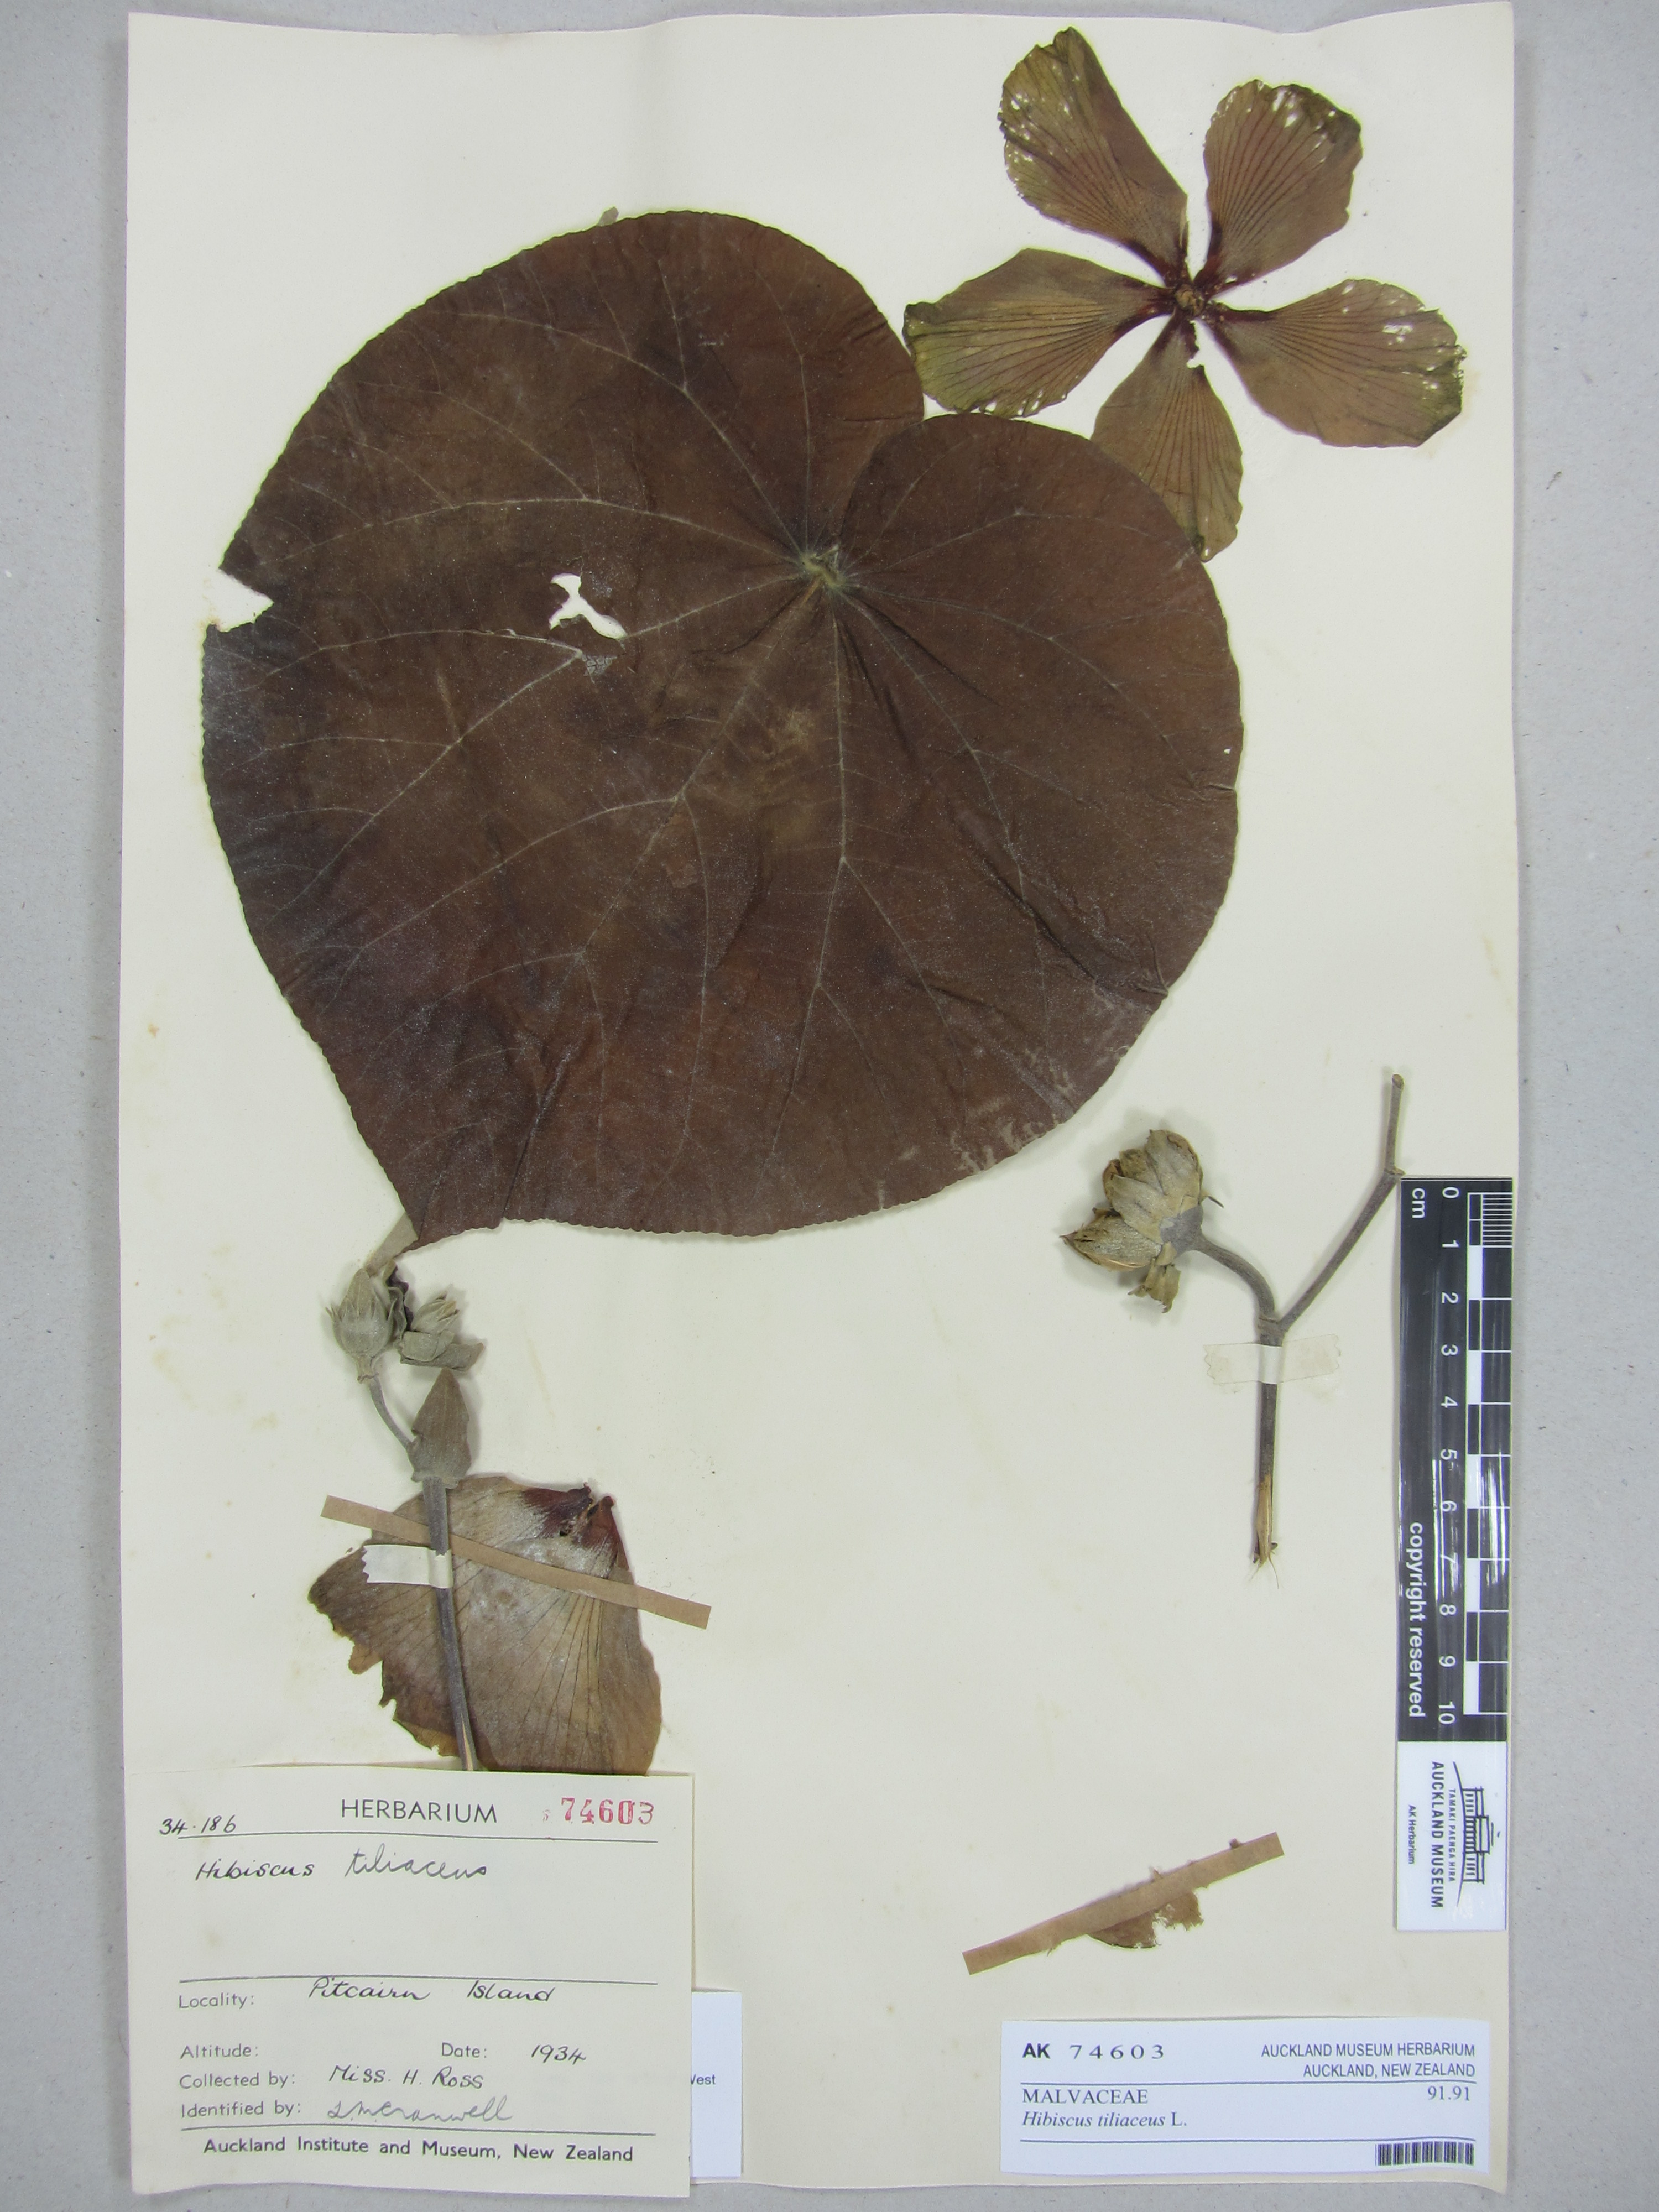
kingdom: Plantae
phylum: Tracheophyta
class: Magnoliopsida
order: Malvales
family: Malvaceae
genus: Talipariti
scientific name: Talipariti tiliaceum
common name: Sea hibiscus
